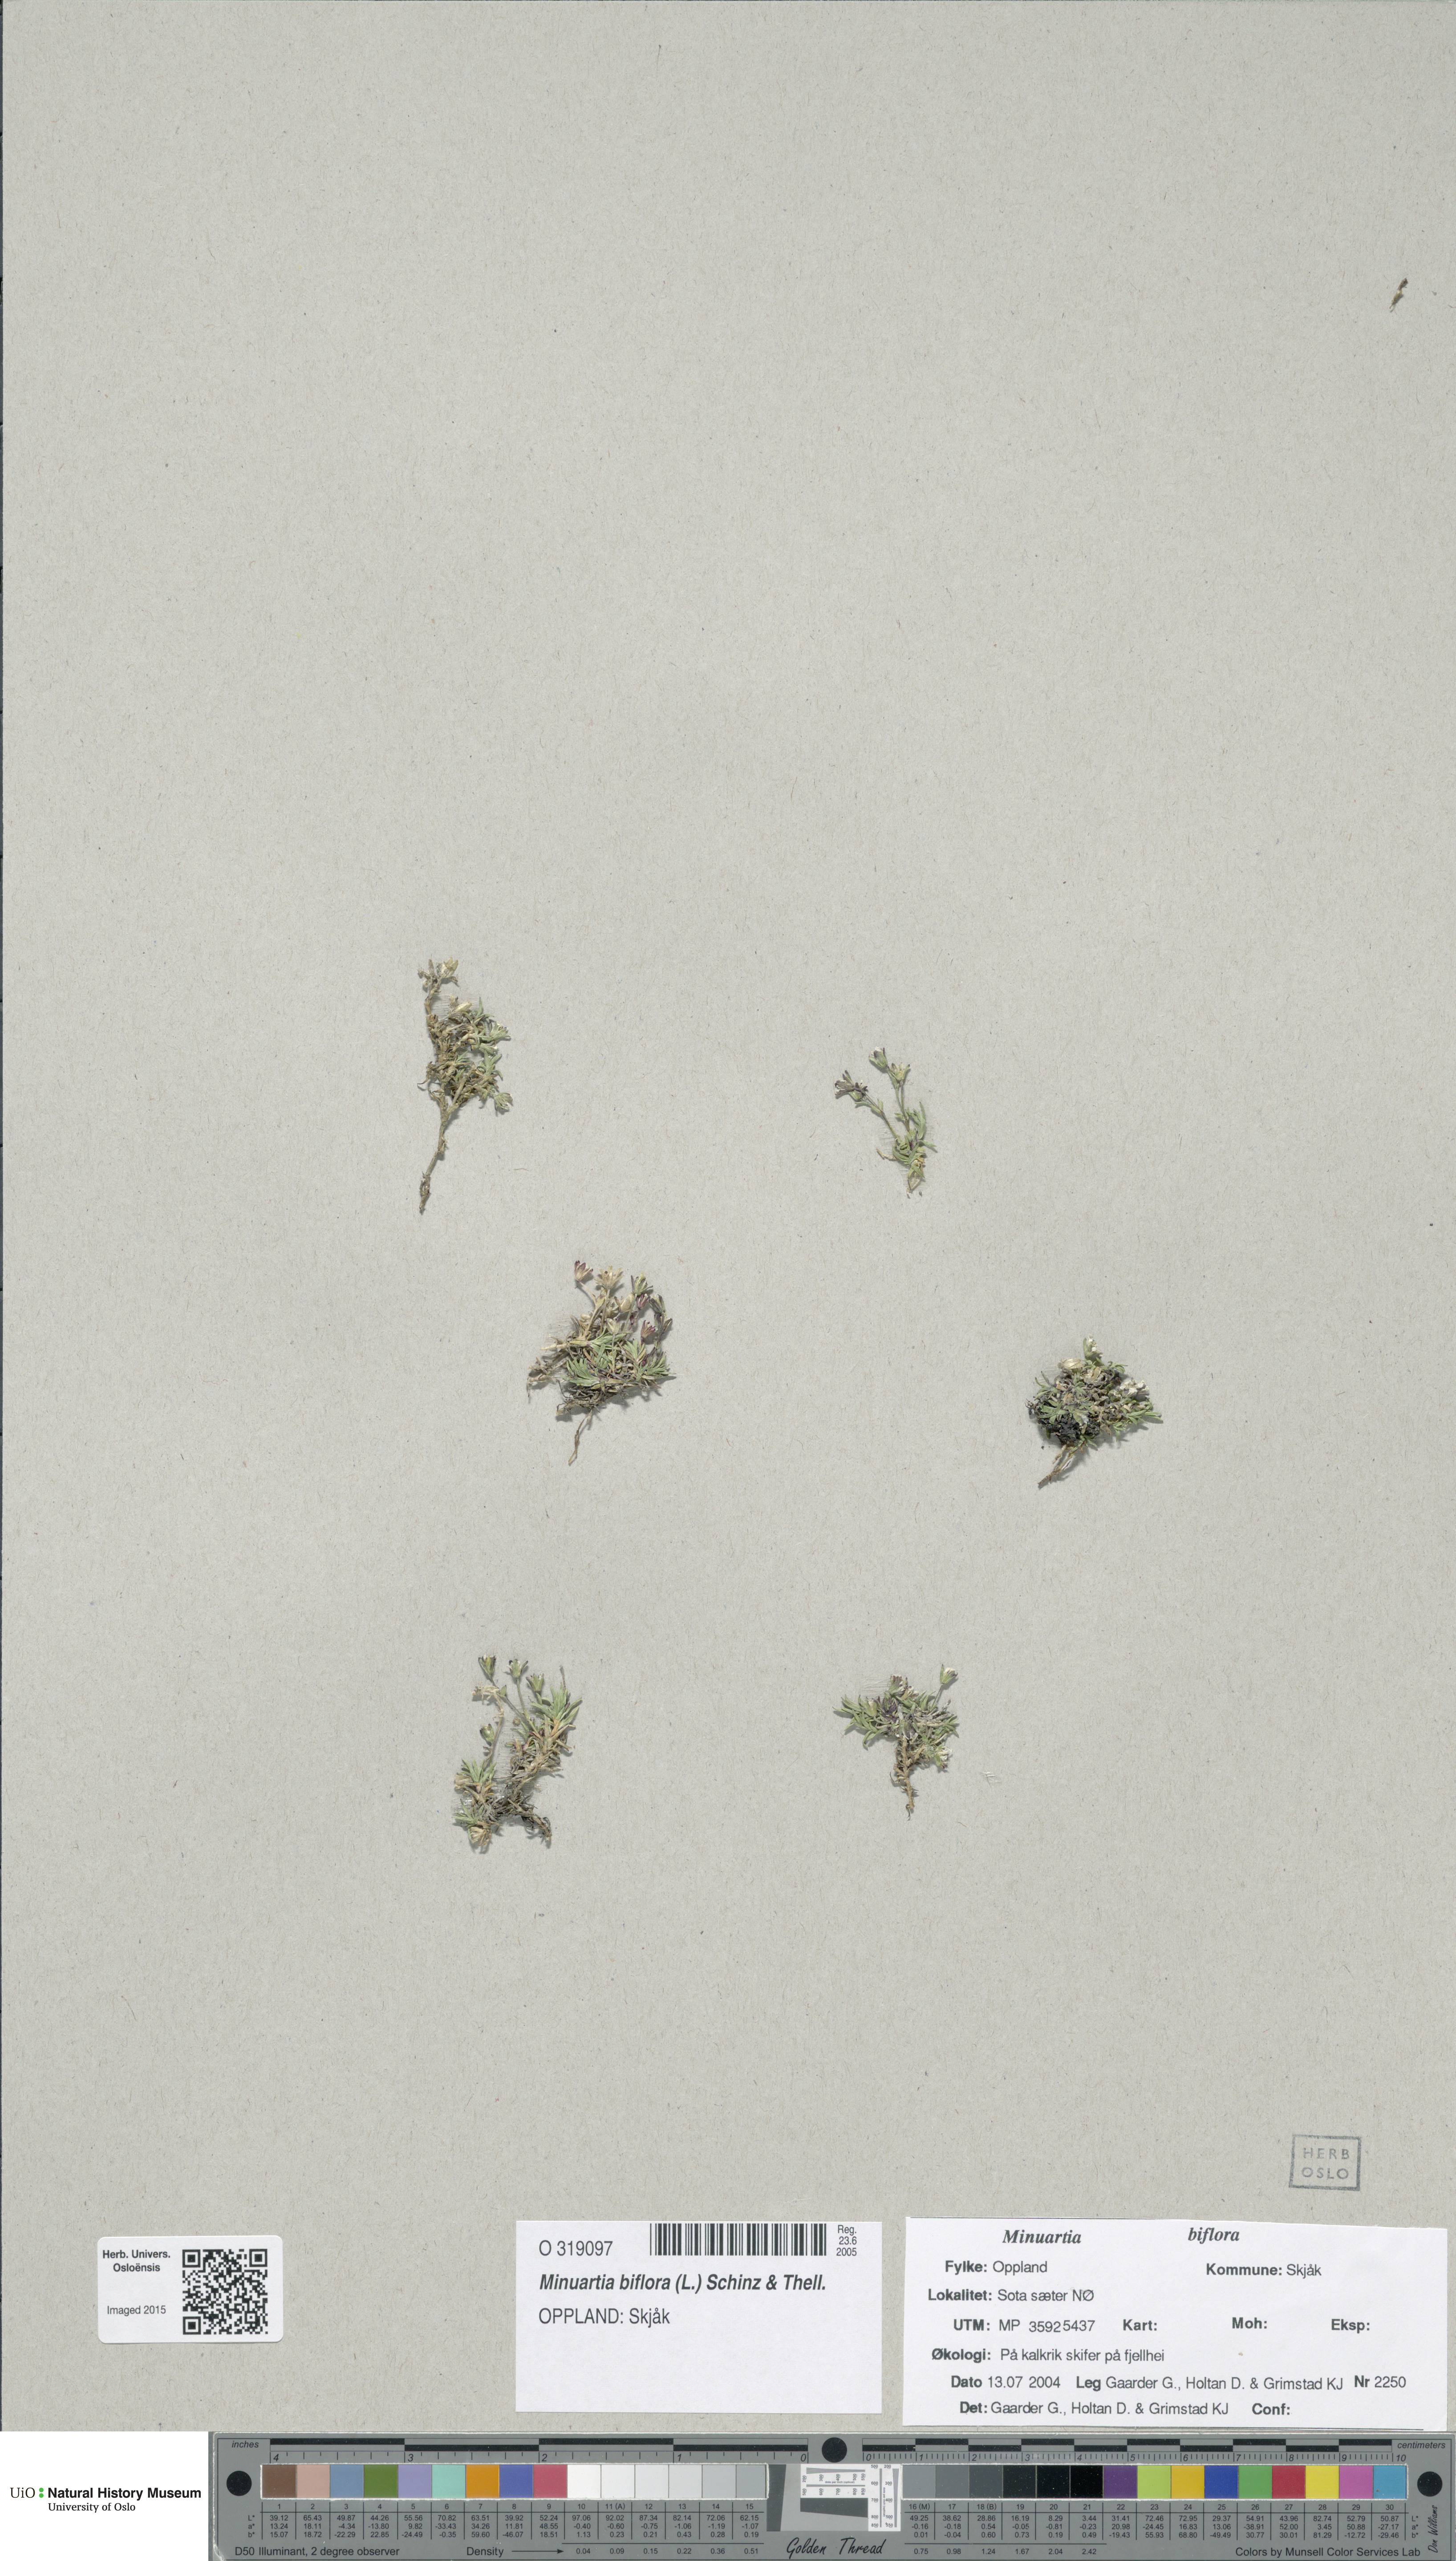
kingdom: Plantae
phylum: Tracheophyta
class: Magnoliopsida
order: Caryophyllales
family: Caryophyllaceae
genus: Cherleria
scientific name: Cherleria biflora
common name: Mountain sandwort
